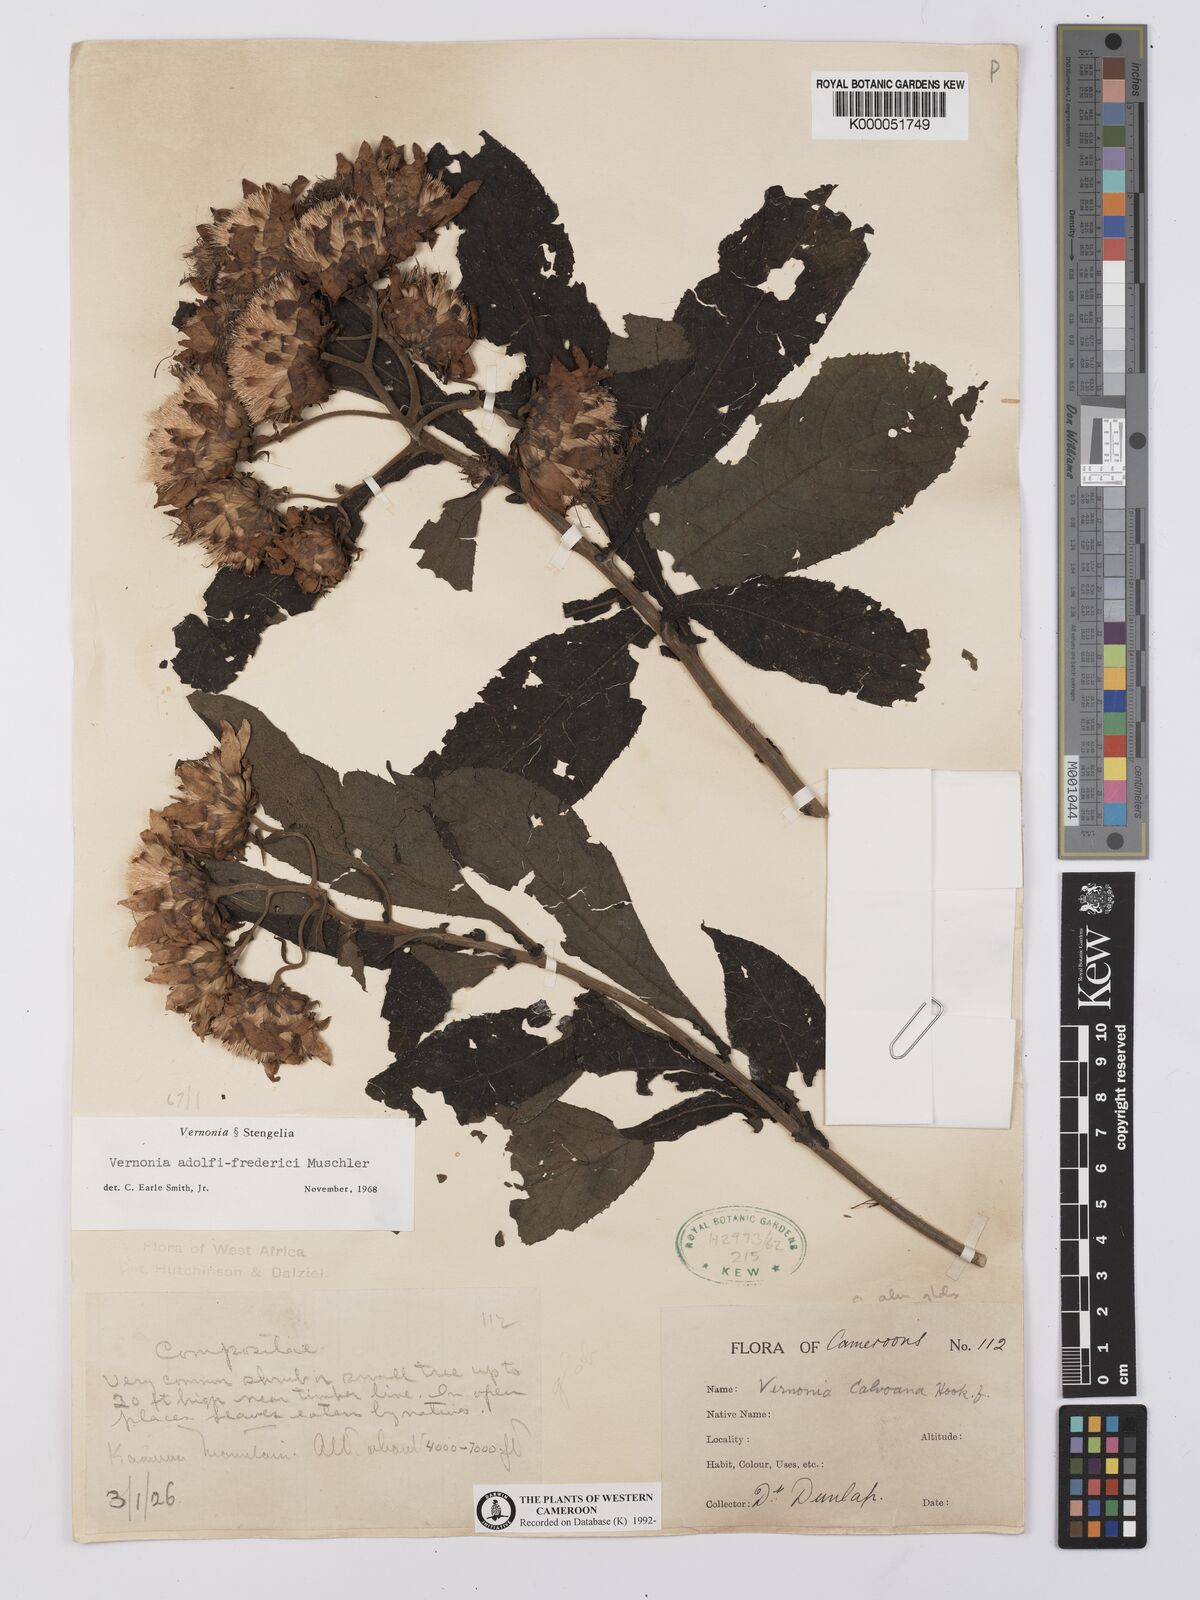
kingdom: Plantae
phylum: Tracheophyta
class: Magnoliopsida
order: Asterales
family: Asteraceae
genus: Baccharoides
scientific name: Baccharoides hymenolepis
